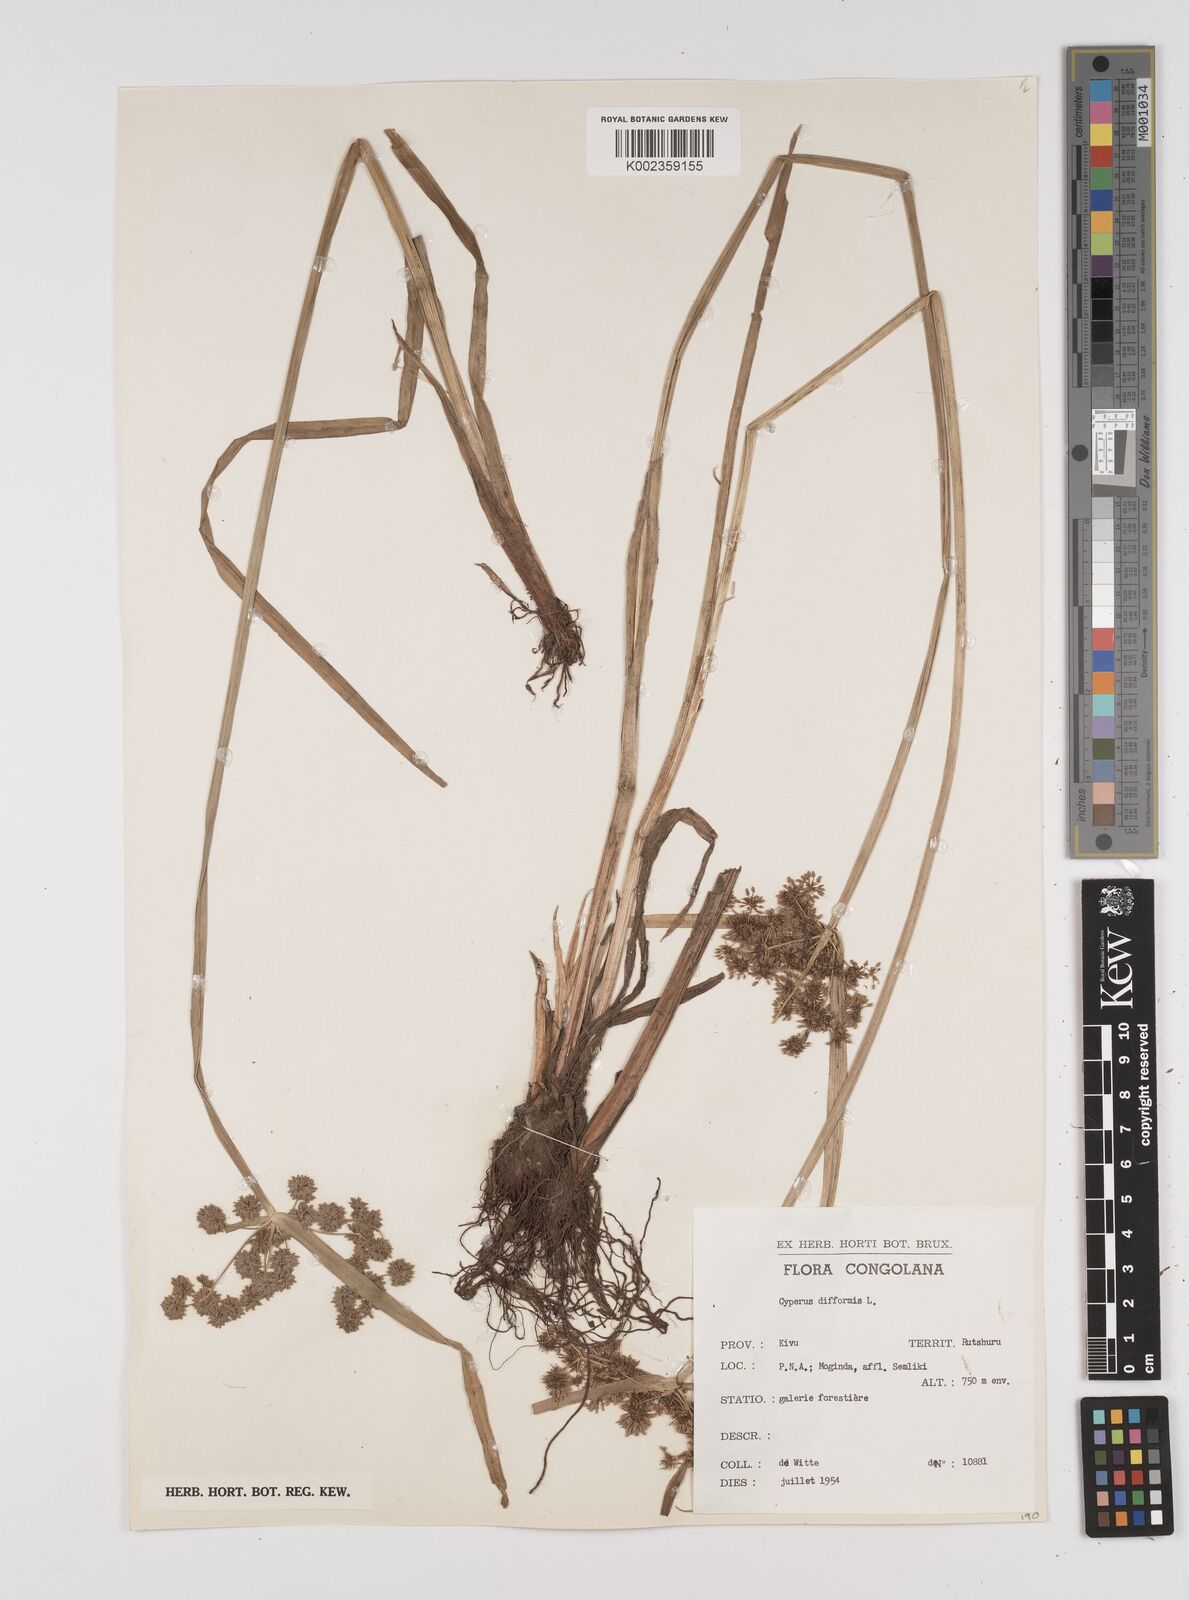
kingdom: Plantae
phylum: Tracheophyta
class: Liliopsida
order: Poales
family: Cyperaceae
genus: Cyperus
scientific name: Cyperus difformis
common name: Variable flatsedge
